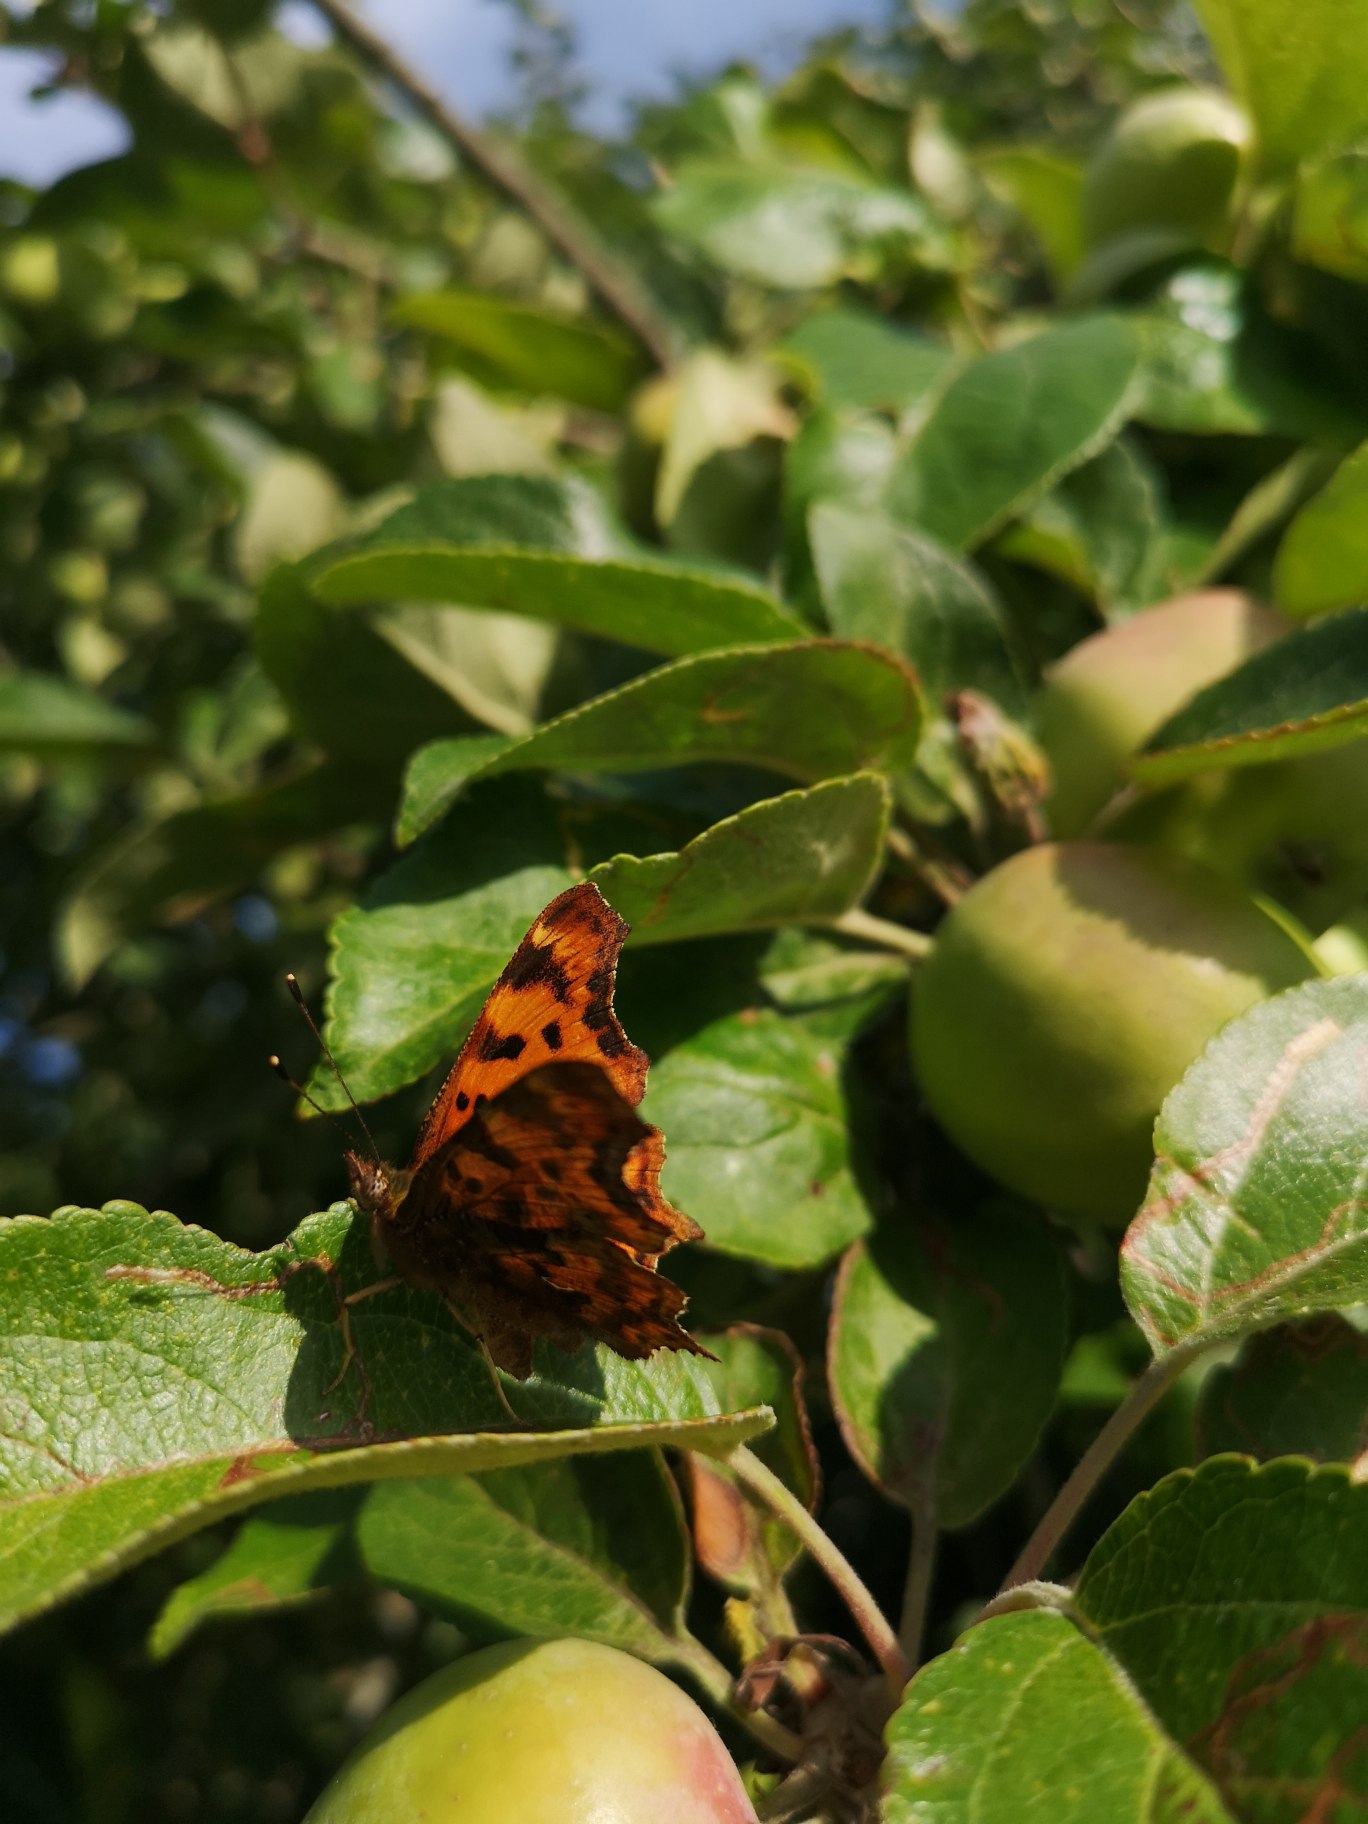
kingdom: Animalia
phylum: Arthropoda
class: Insecta
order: Lepidoptera
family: Nymphalidae
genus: Polygonia
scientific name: Polygonia c-album
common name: Det hvide C
